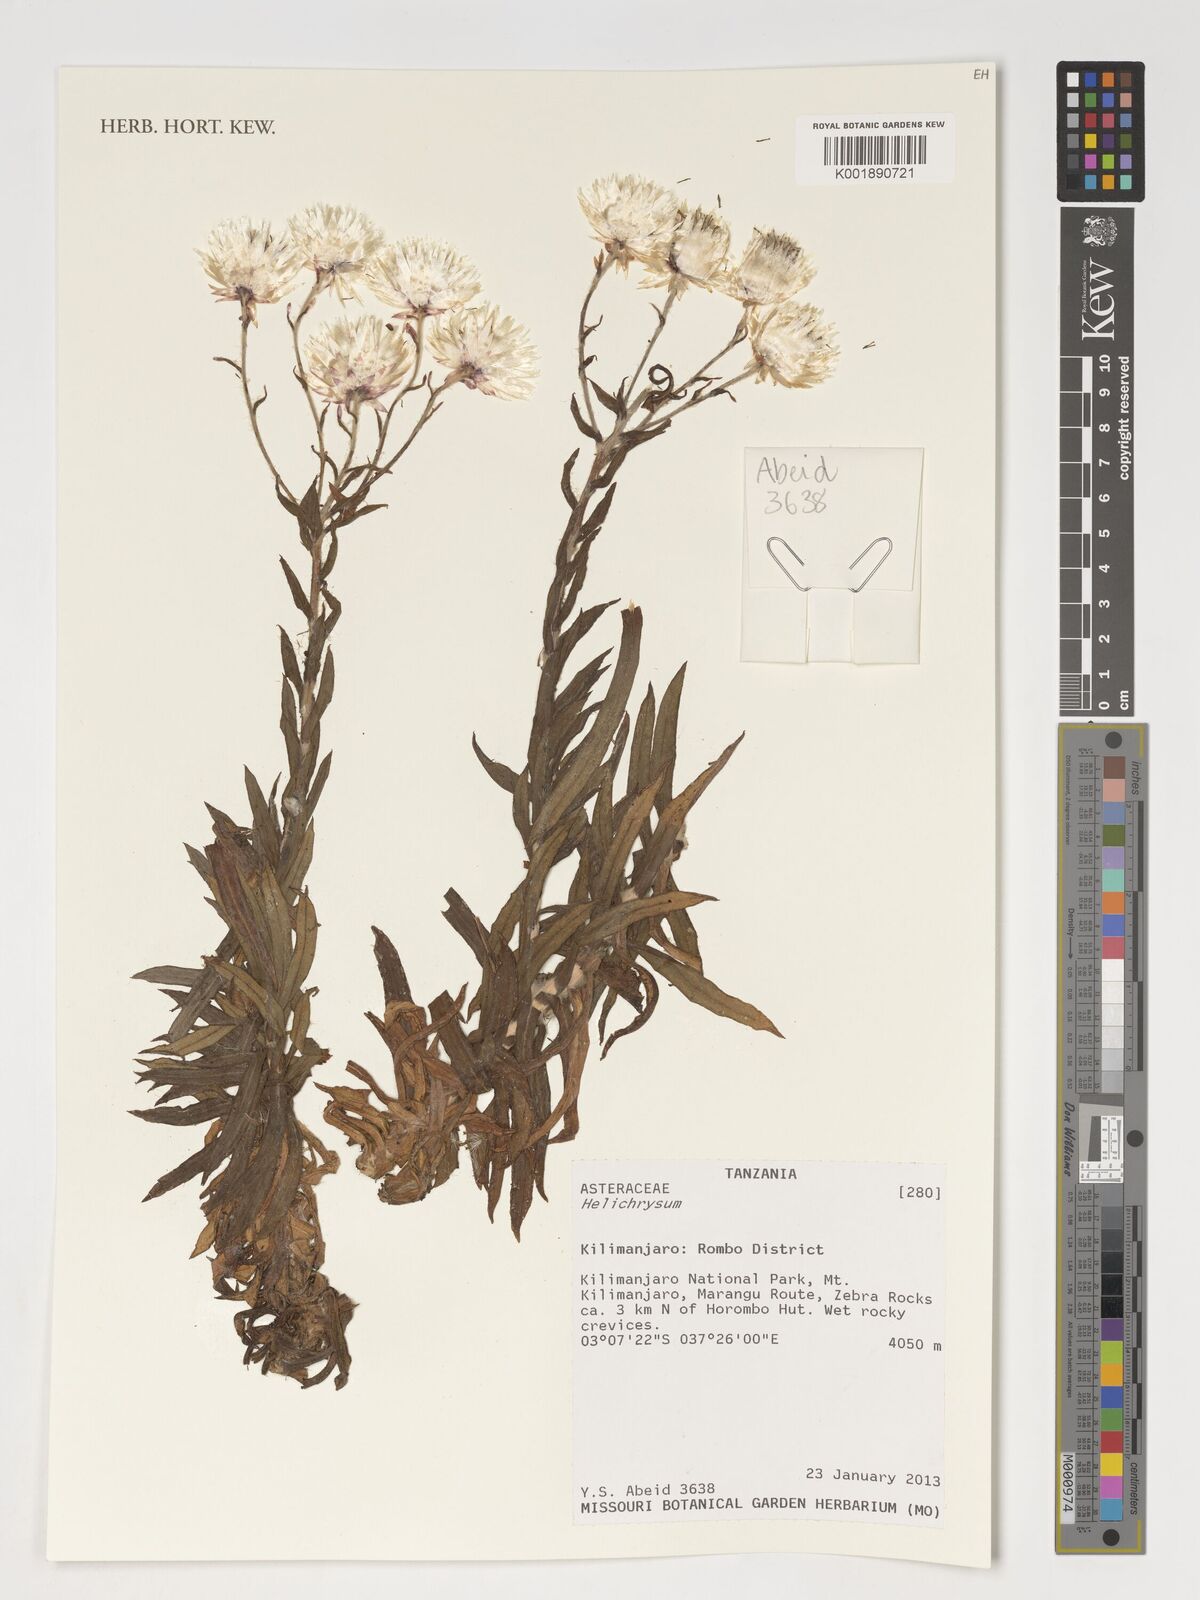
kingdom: Plantae
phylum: Tracheophyta
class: Magnoliopsida
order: Asterales
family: Asteraceae
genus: Helichrysum
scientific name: Helichrysum
